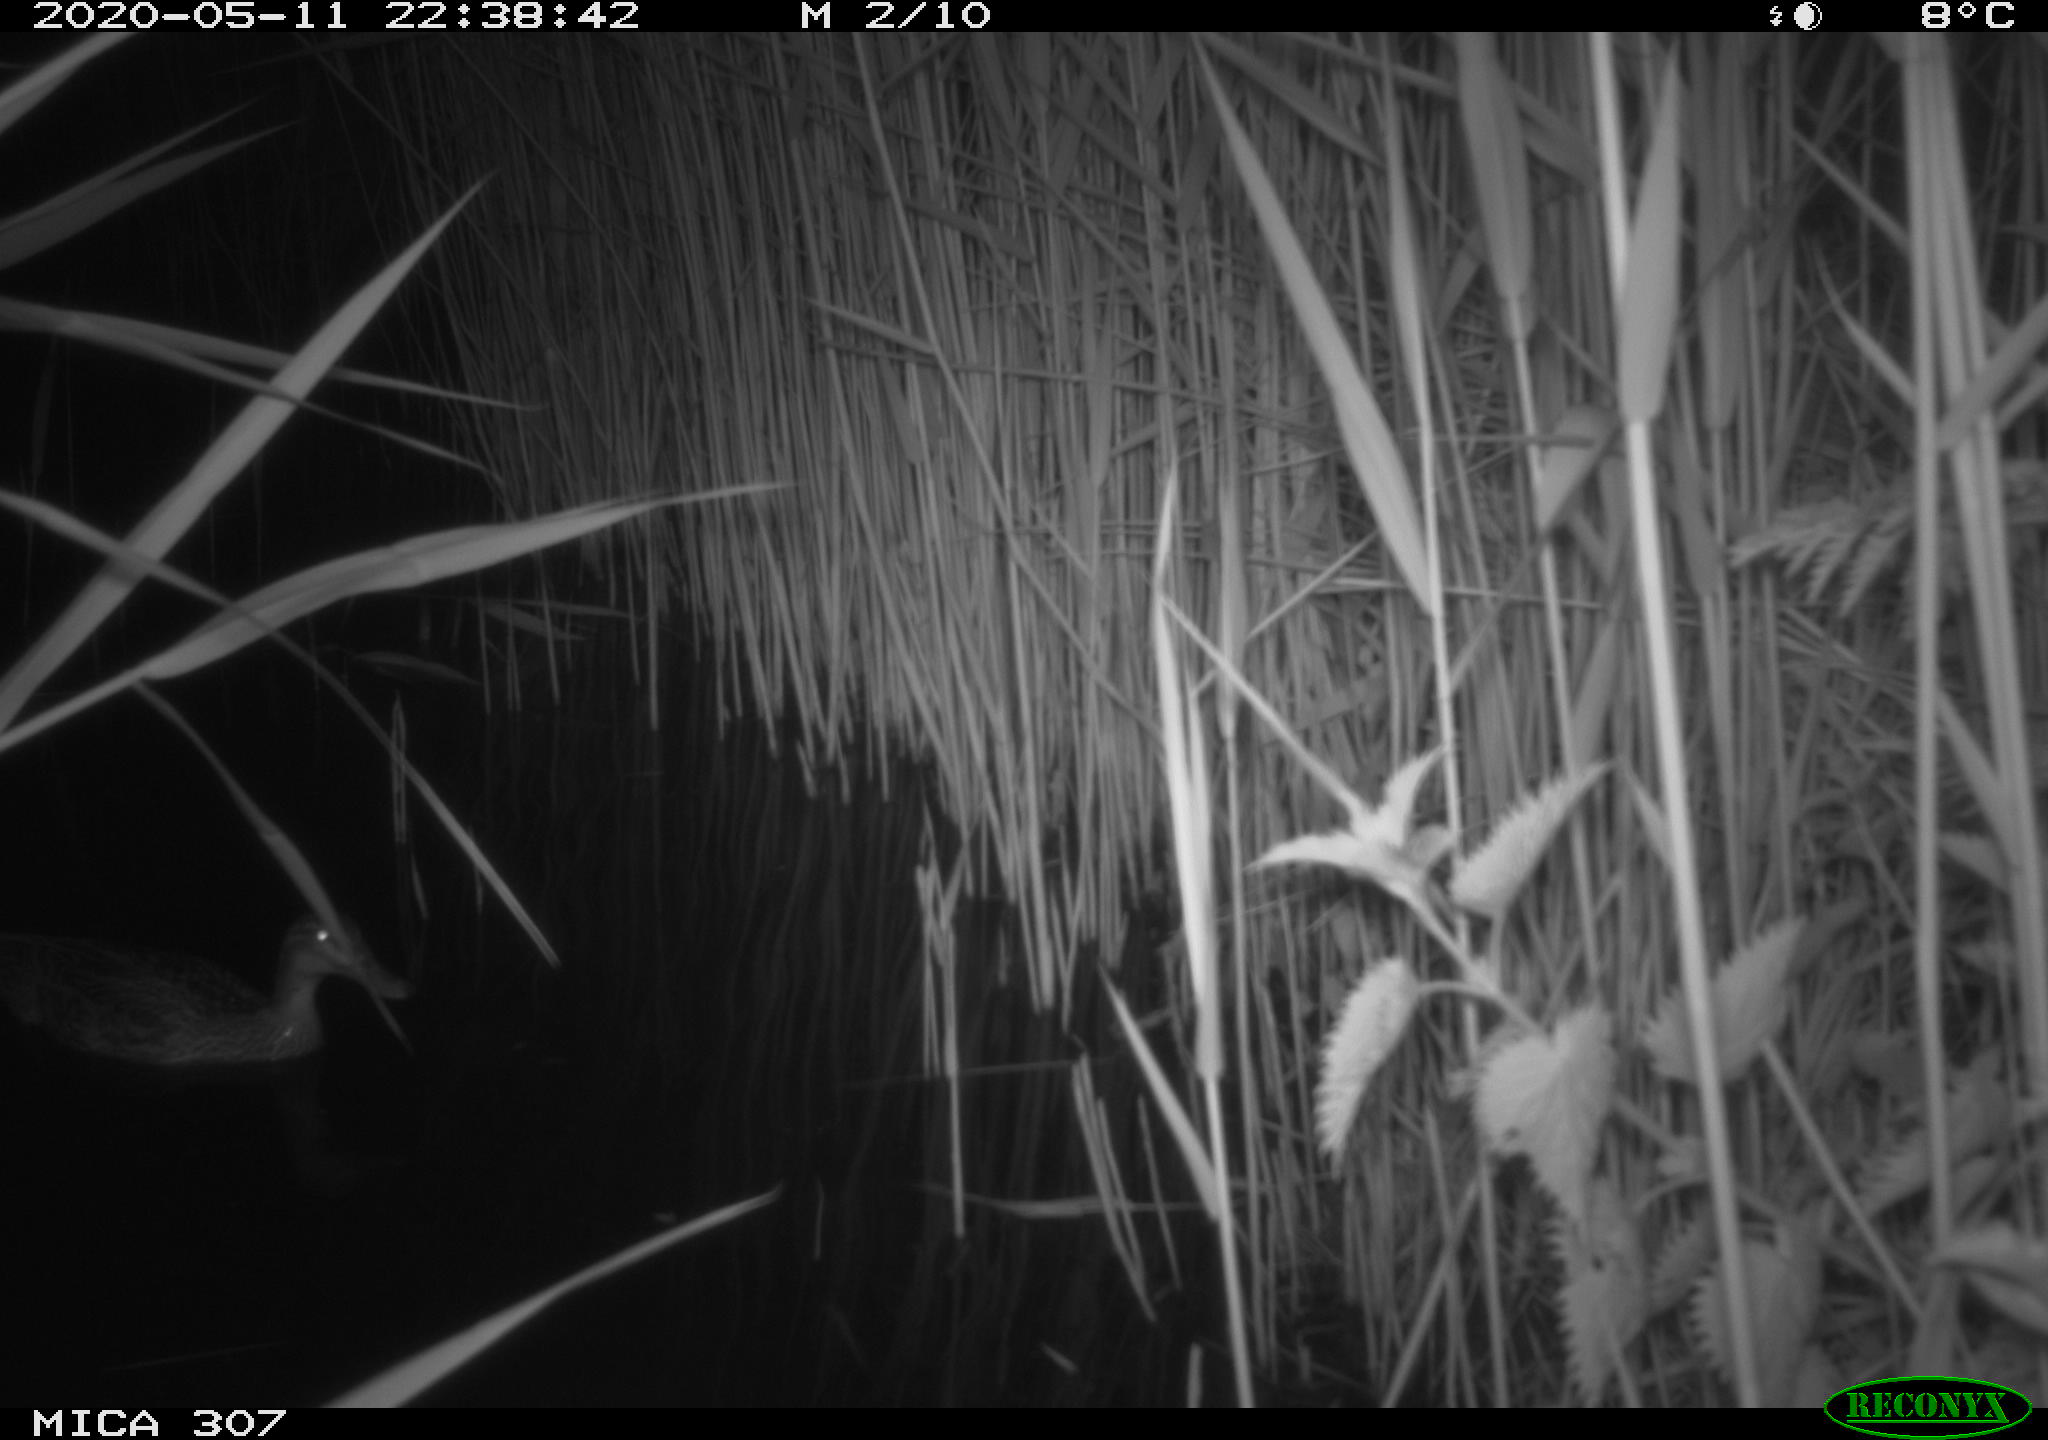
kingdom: Animalia
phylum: Chordata
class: Aves
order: Anseriformes
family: Anatidae
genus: Anas
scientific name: Anas platyrhynchos
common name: Mallard
